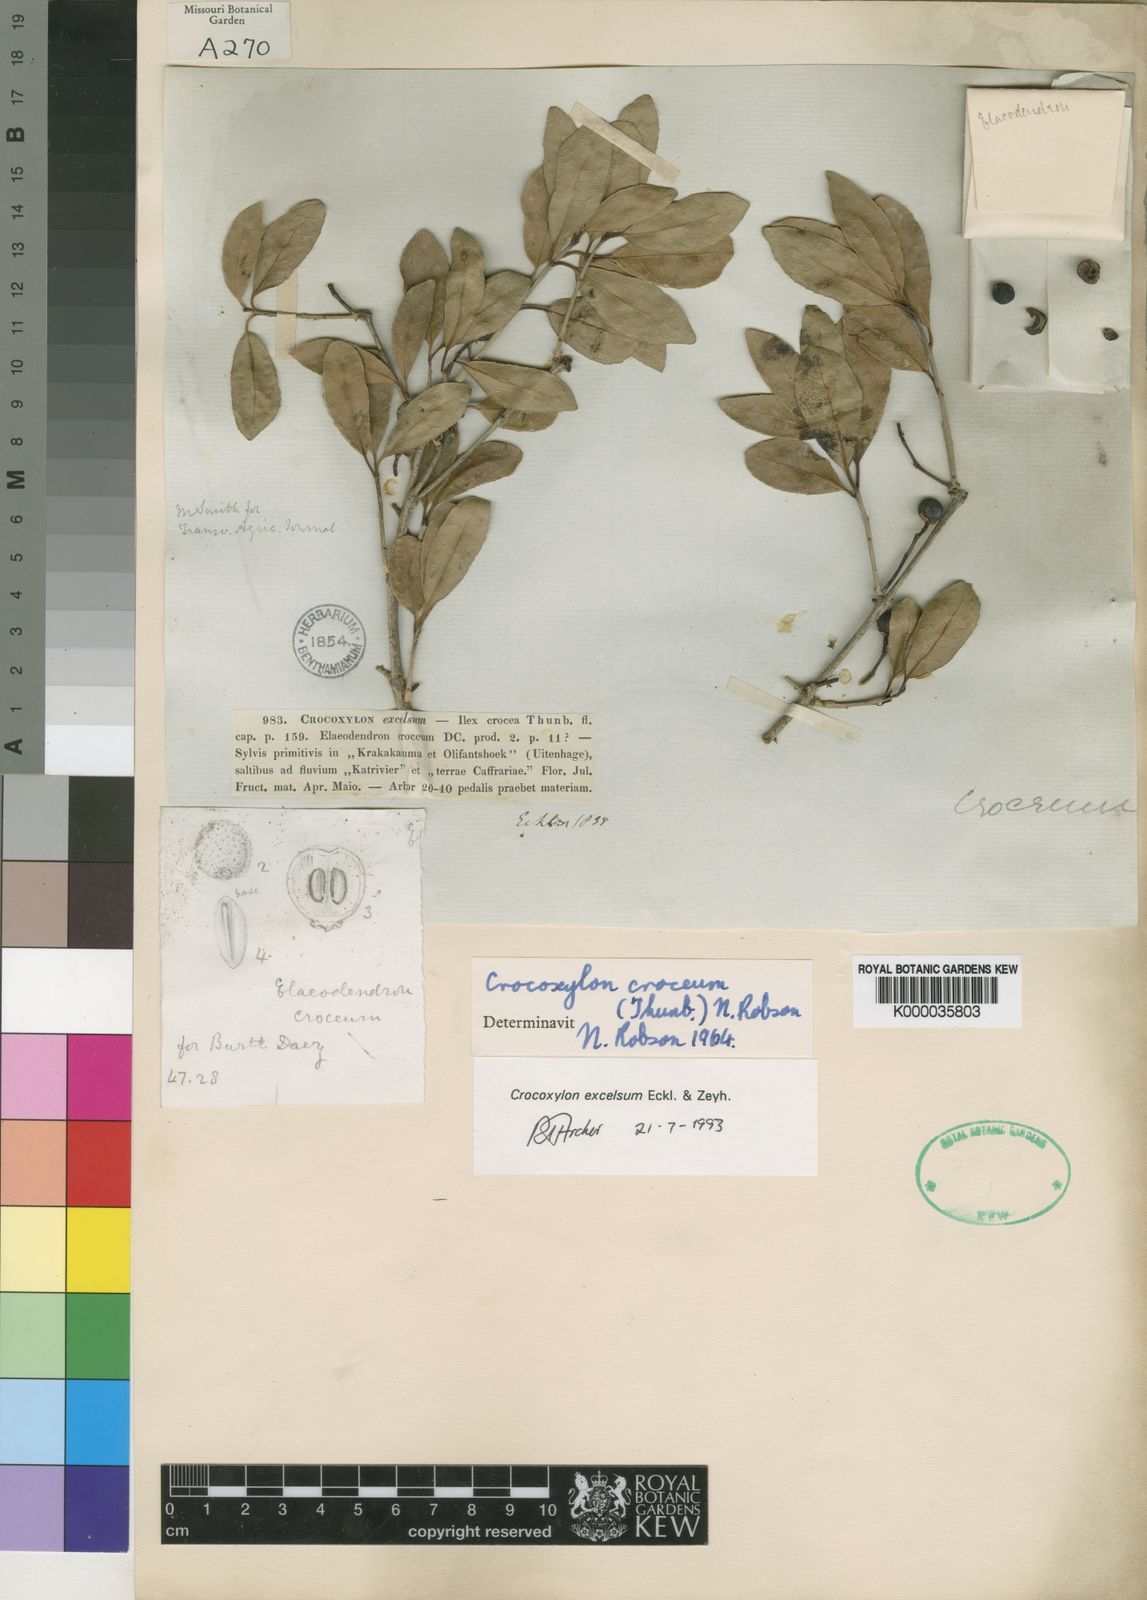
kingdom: Plantae
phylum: Tracheophyta
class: Magnoliopsida
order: Celastrales
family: Celastraceae
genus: Elaeodendron
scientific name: Elaeodendron zeyheri
